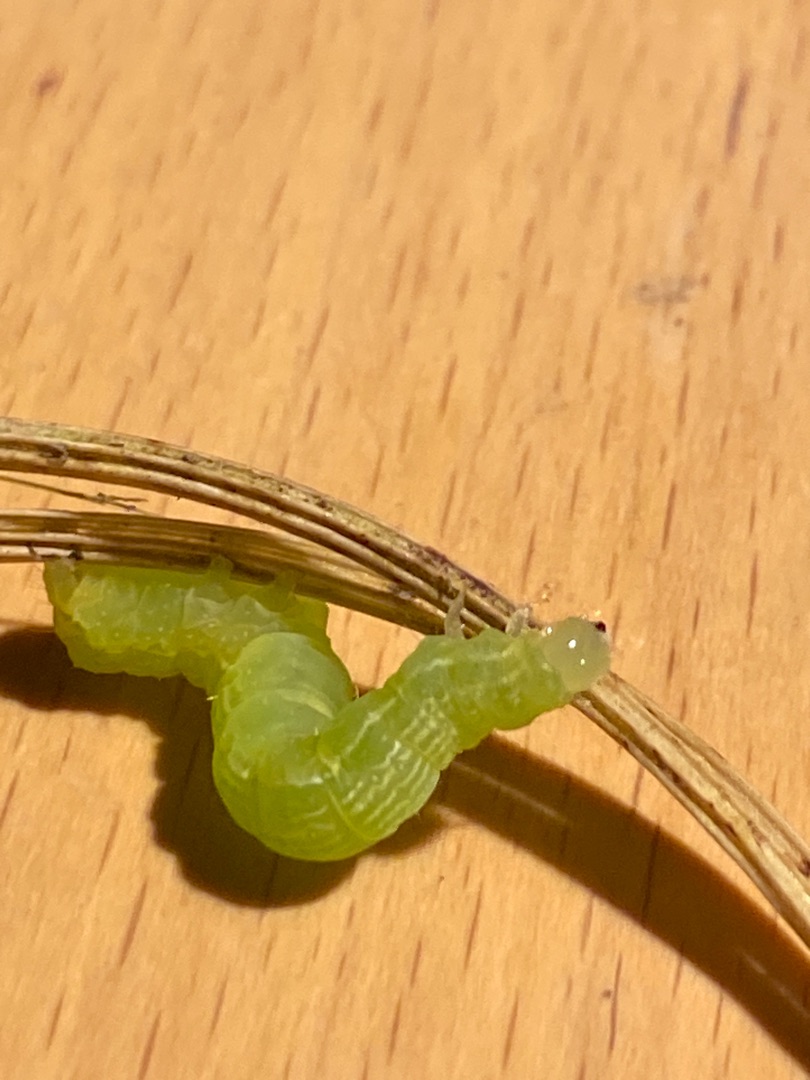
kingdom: Animalia
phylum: Arthropoda
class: Insecta
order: Lepidoptera
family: Noctuidae
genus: Autographa
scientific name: Autographa gamma
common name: Gammaugle
